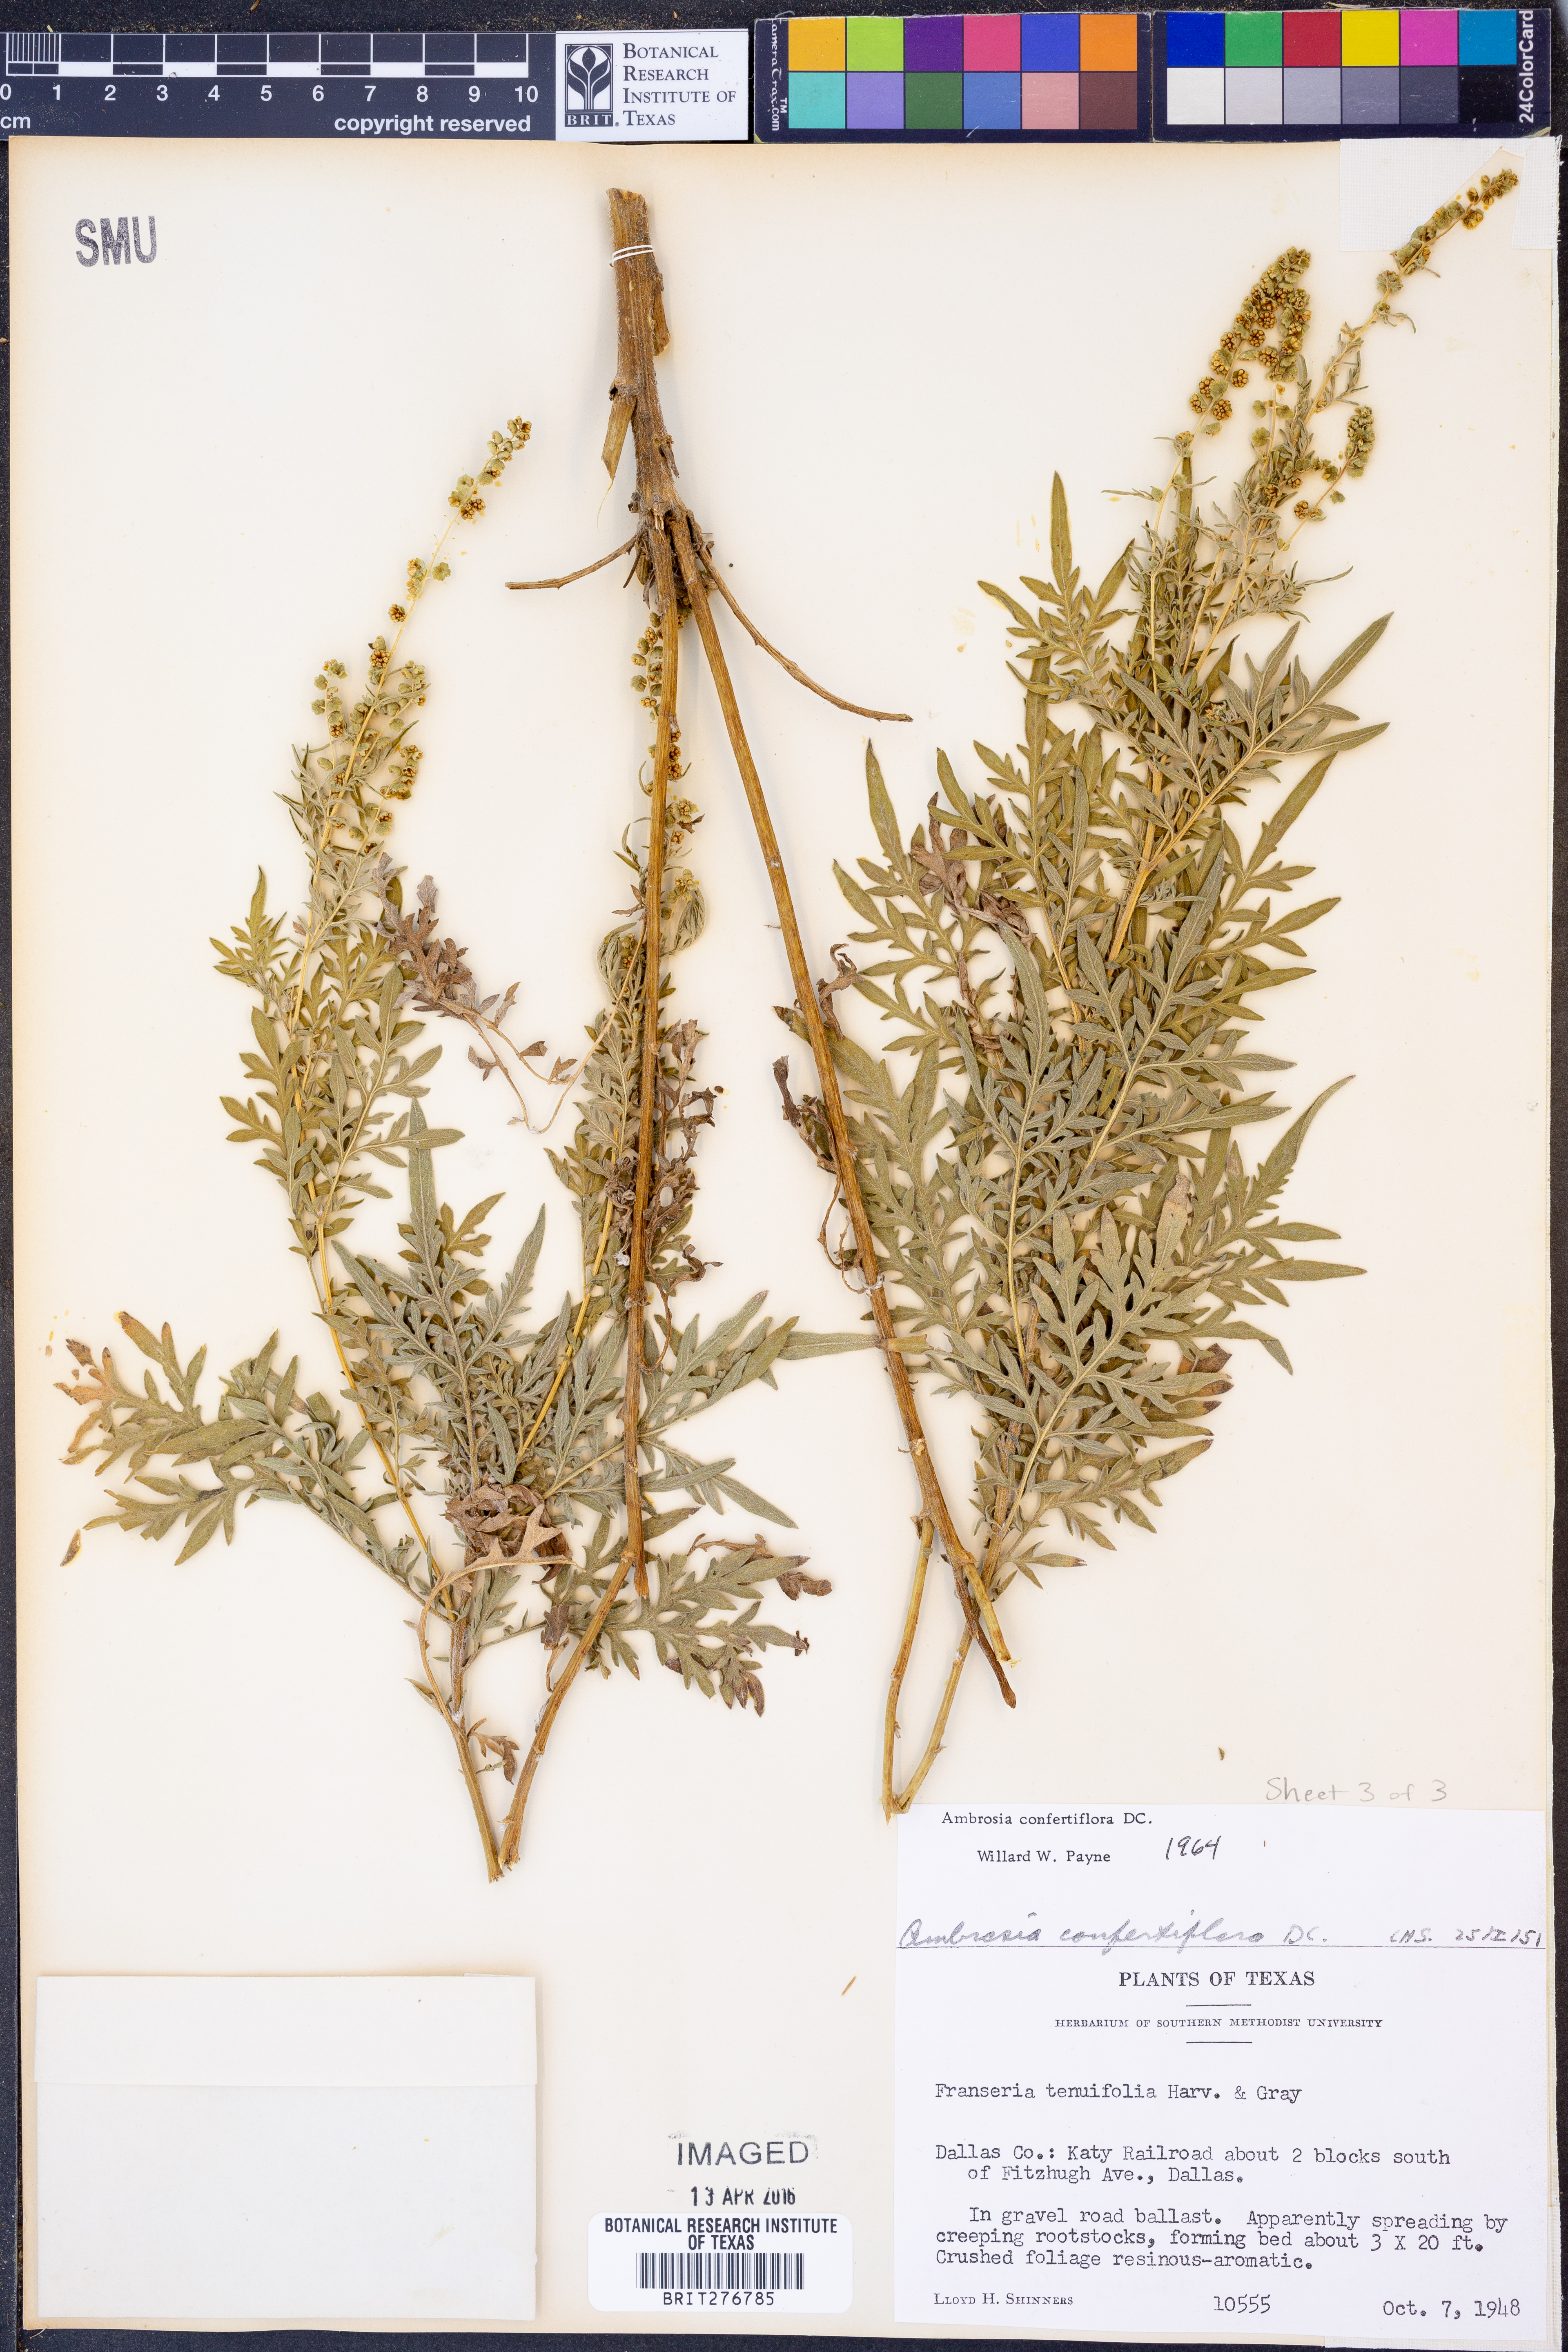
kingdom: Plantae
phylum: Tracheophyta
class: Magnoliopsida
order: Asterales
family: Asteraceae
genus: Ambrosia
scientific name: Ambrosia confertiflora
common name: Bur ragweed
